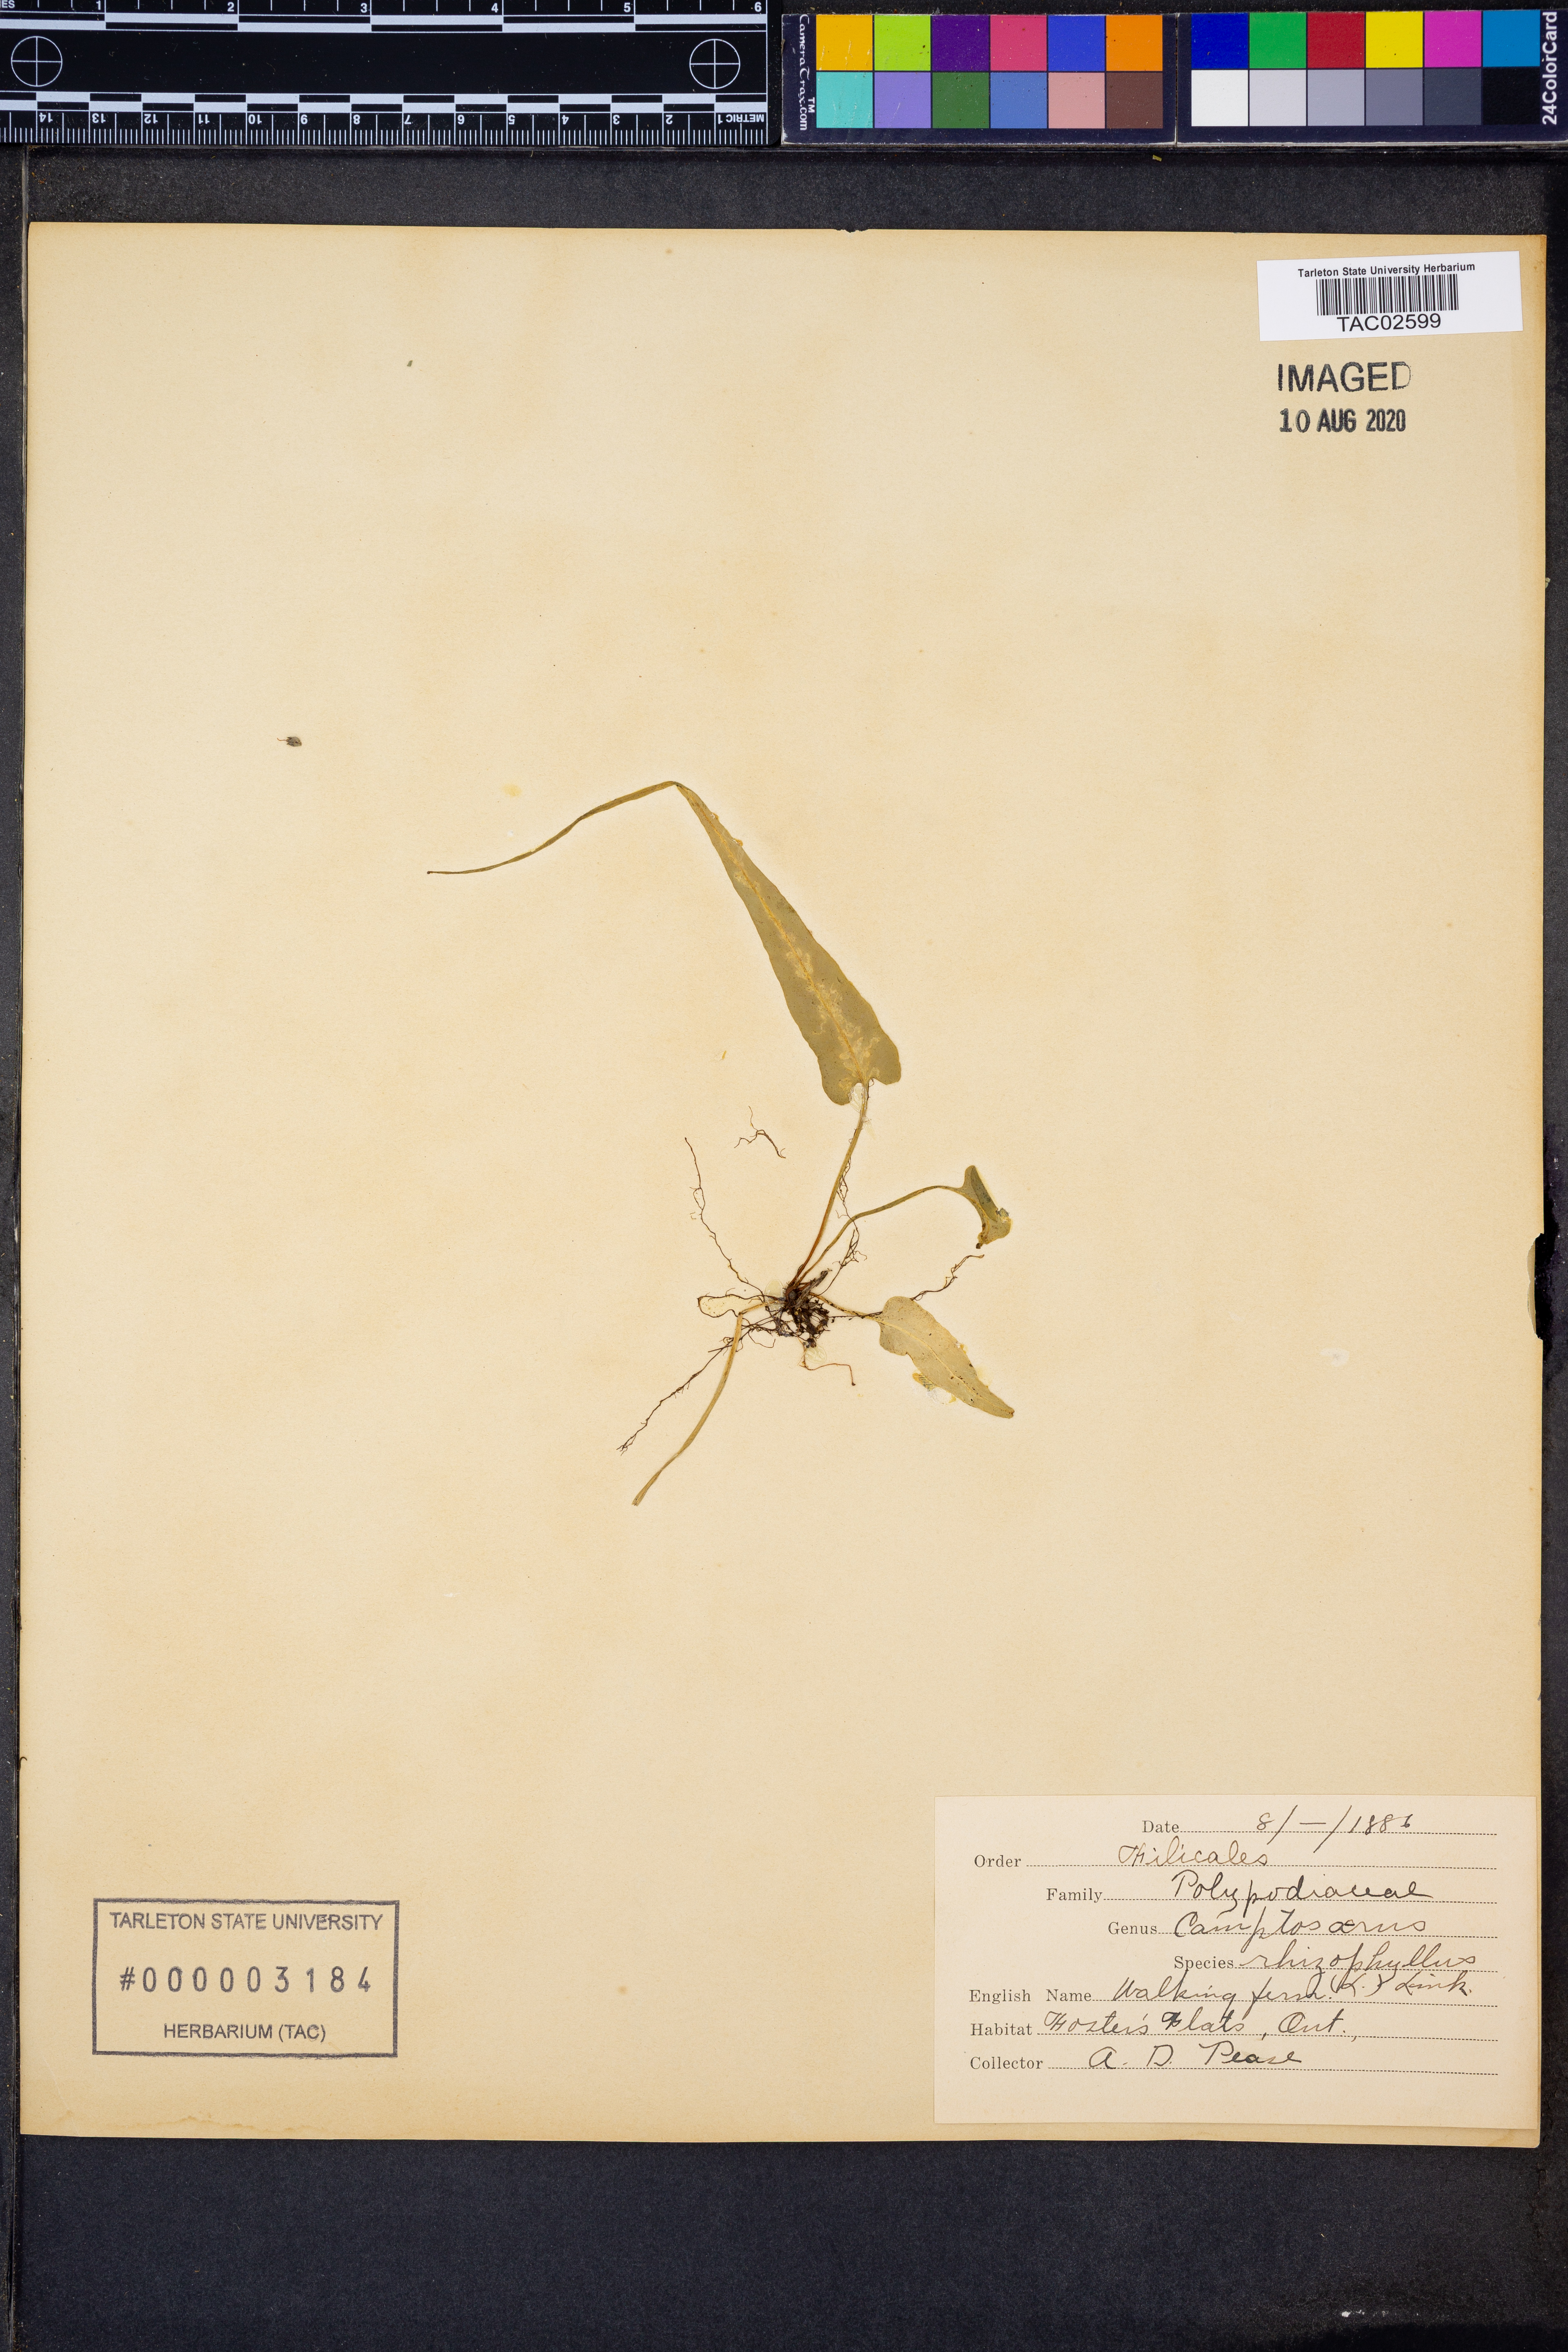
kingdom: Plantae
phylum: Tracheophyta
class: Polypodiopsida
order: Polypodiales
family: Aspleniaceae
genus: Asplenium
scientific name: Asplenium rhizophyllum
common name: Walking fern
